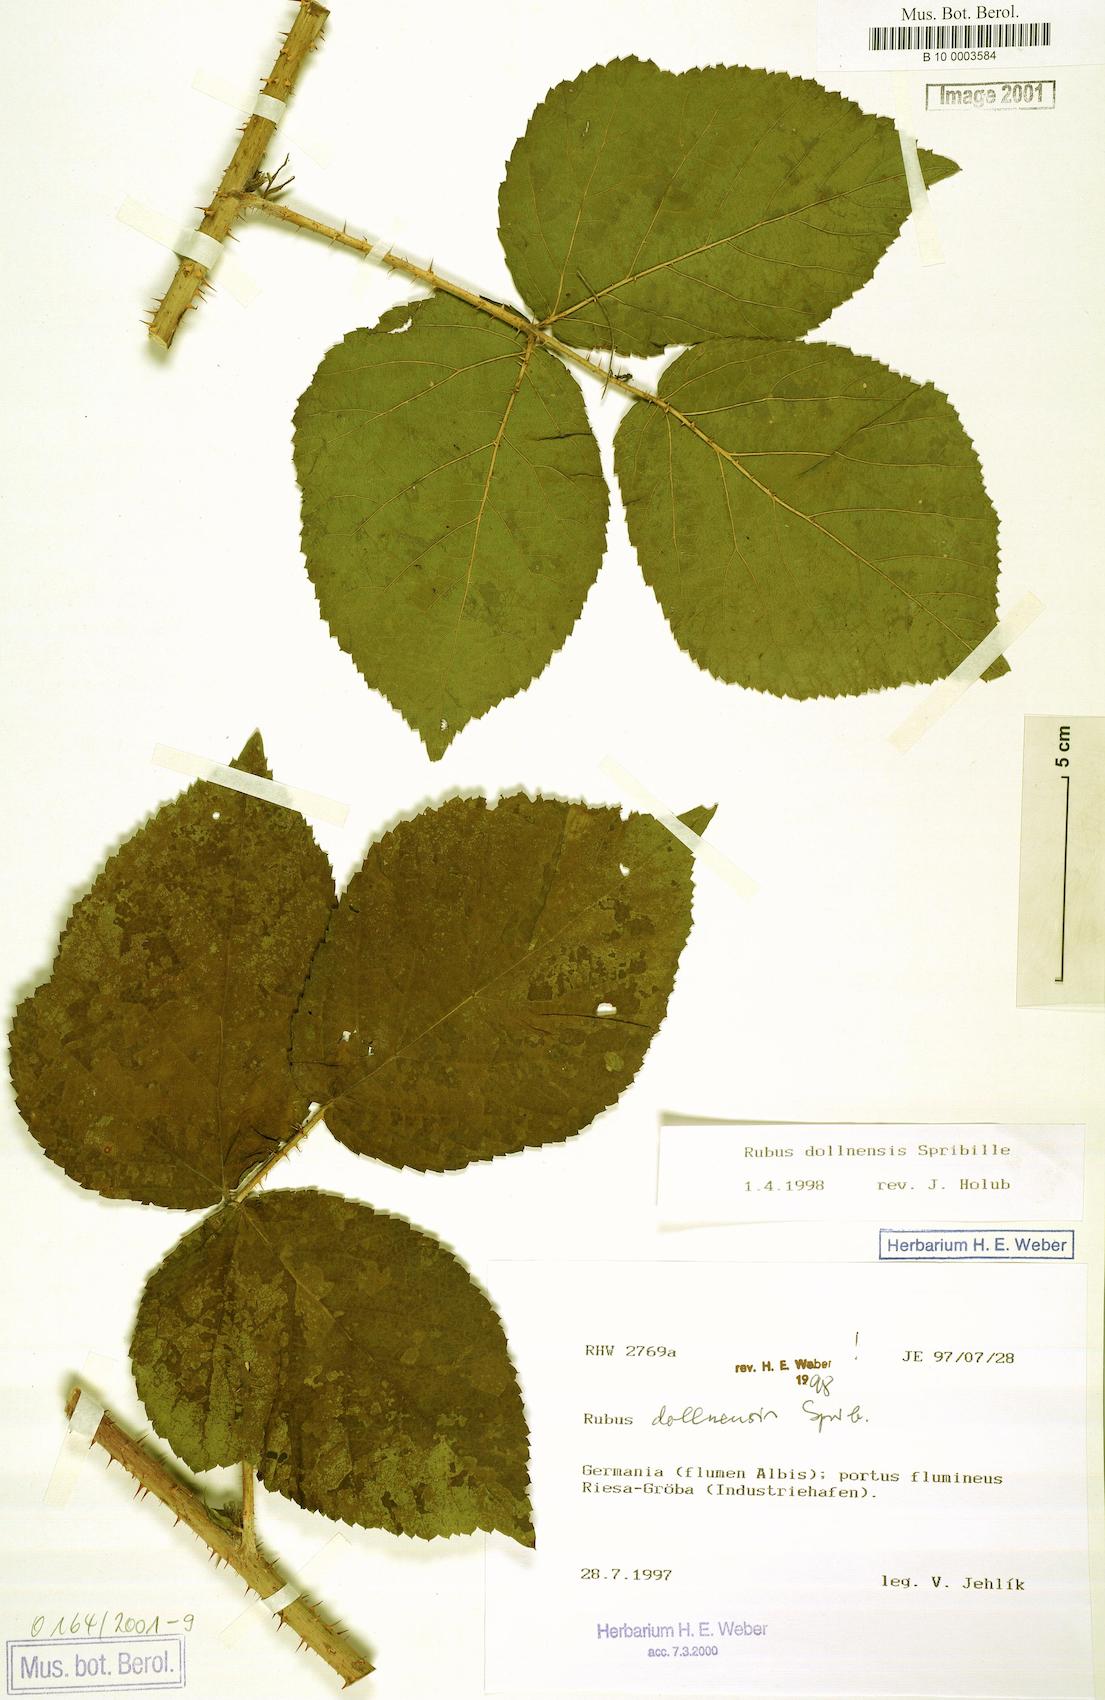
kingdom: Plantae
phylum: Tracheophyta
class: Magnoliopsida
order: Rosales
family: Rosaceae
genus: Rubus
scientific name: Rubus dollnensis
